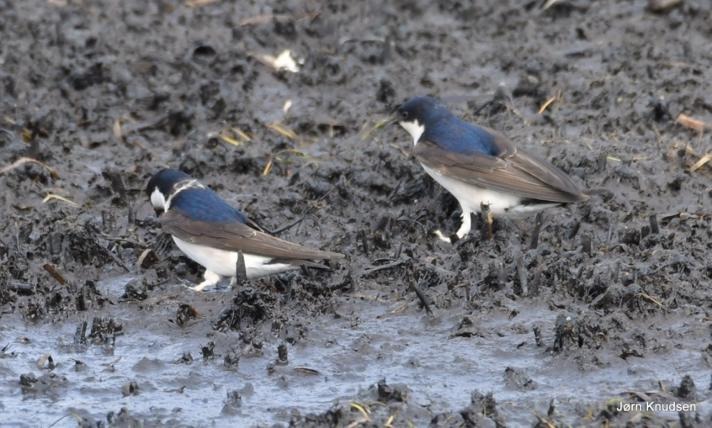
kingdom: Animalia
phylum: Chordata
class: Aves
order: Passeriformes
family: Hirundinidae
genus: Delichon
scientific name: Delichon urbicum
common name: Bysvale
